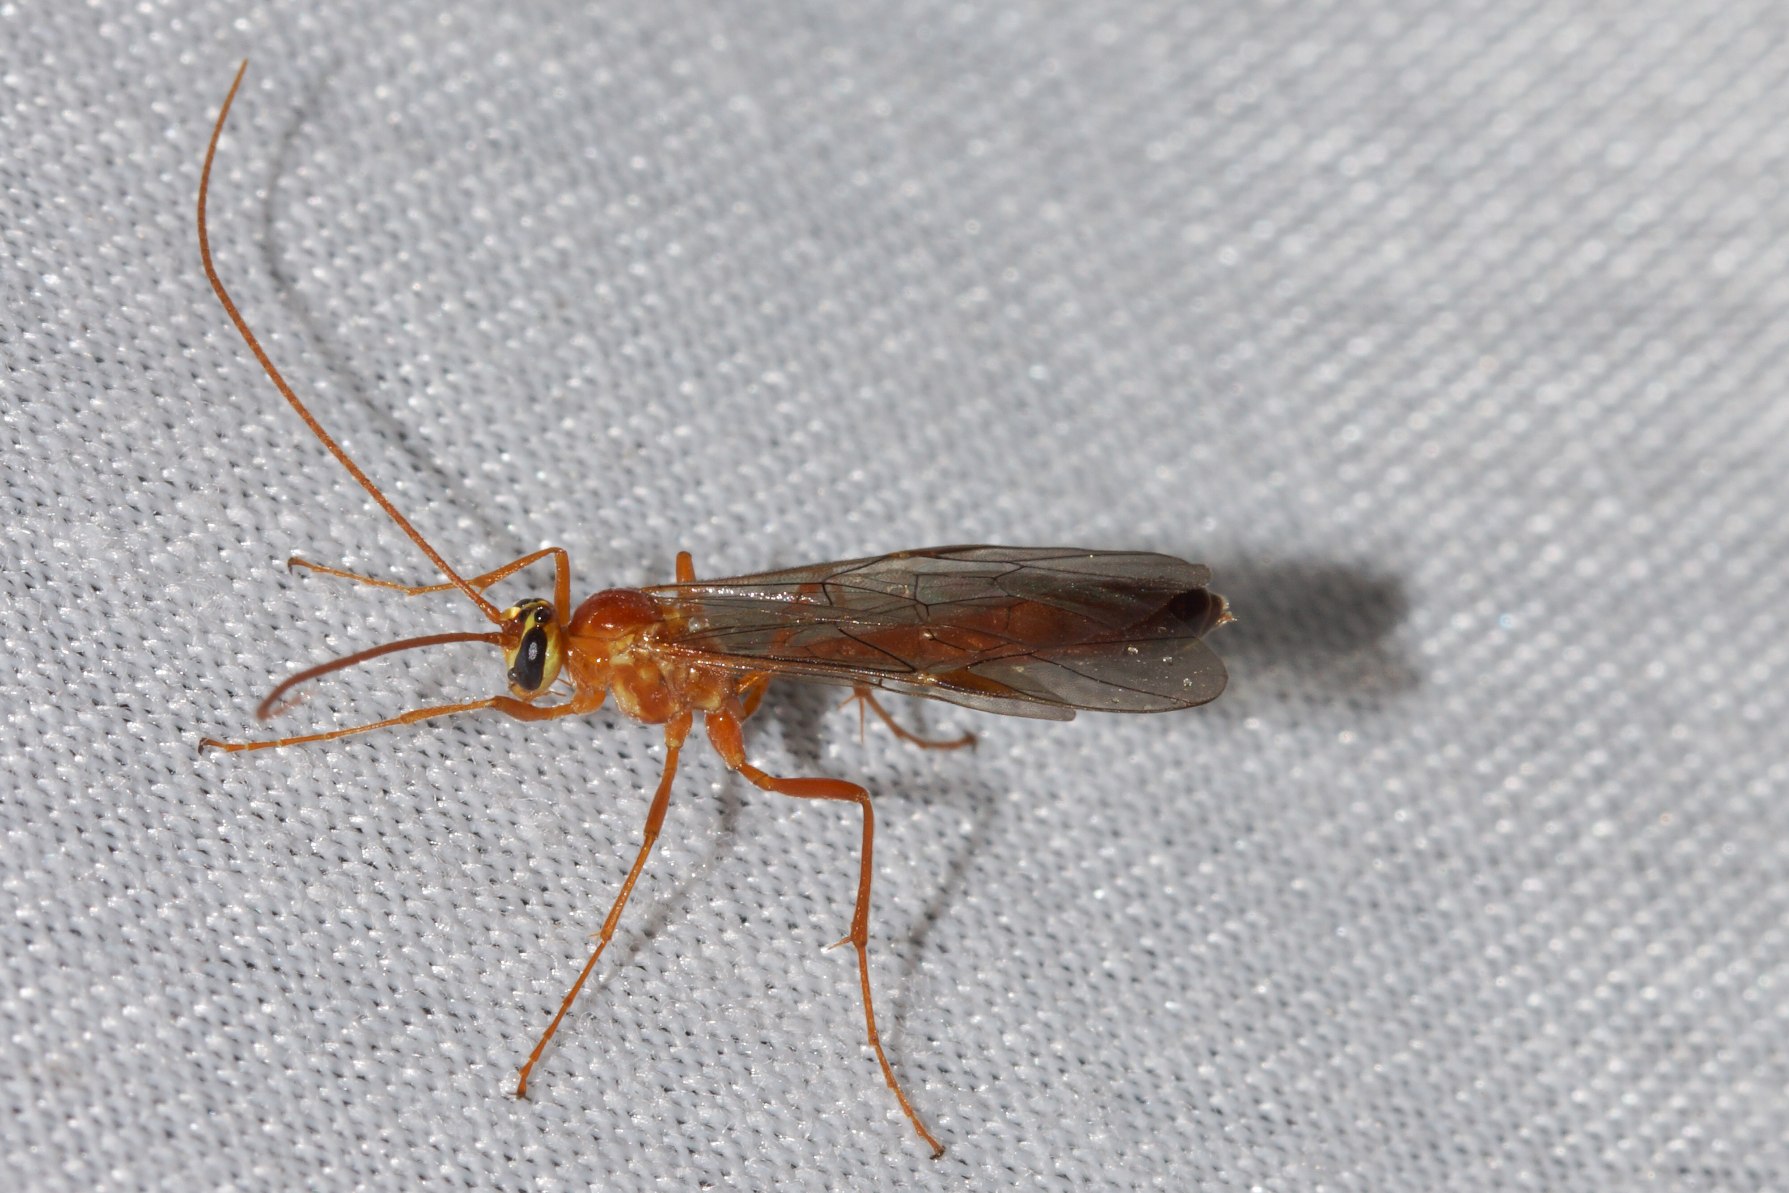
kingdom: Animalia
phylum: Arthropoda
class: Insecta
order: Hymenoptera
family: Ichneumonidae
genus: Ophion
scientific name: Ophion minutus
